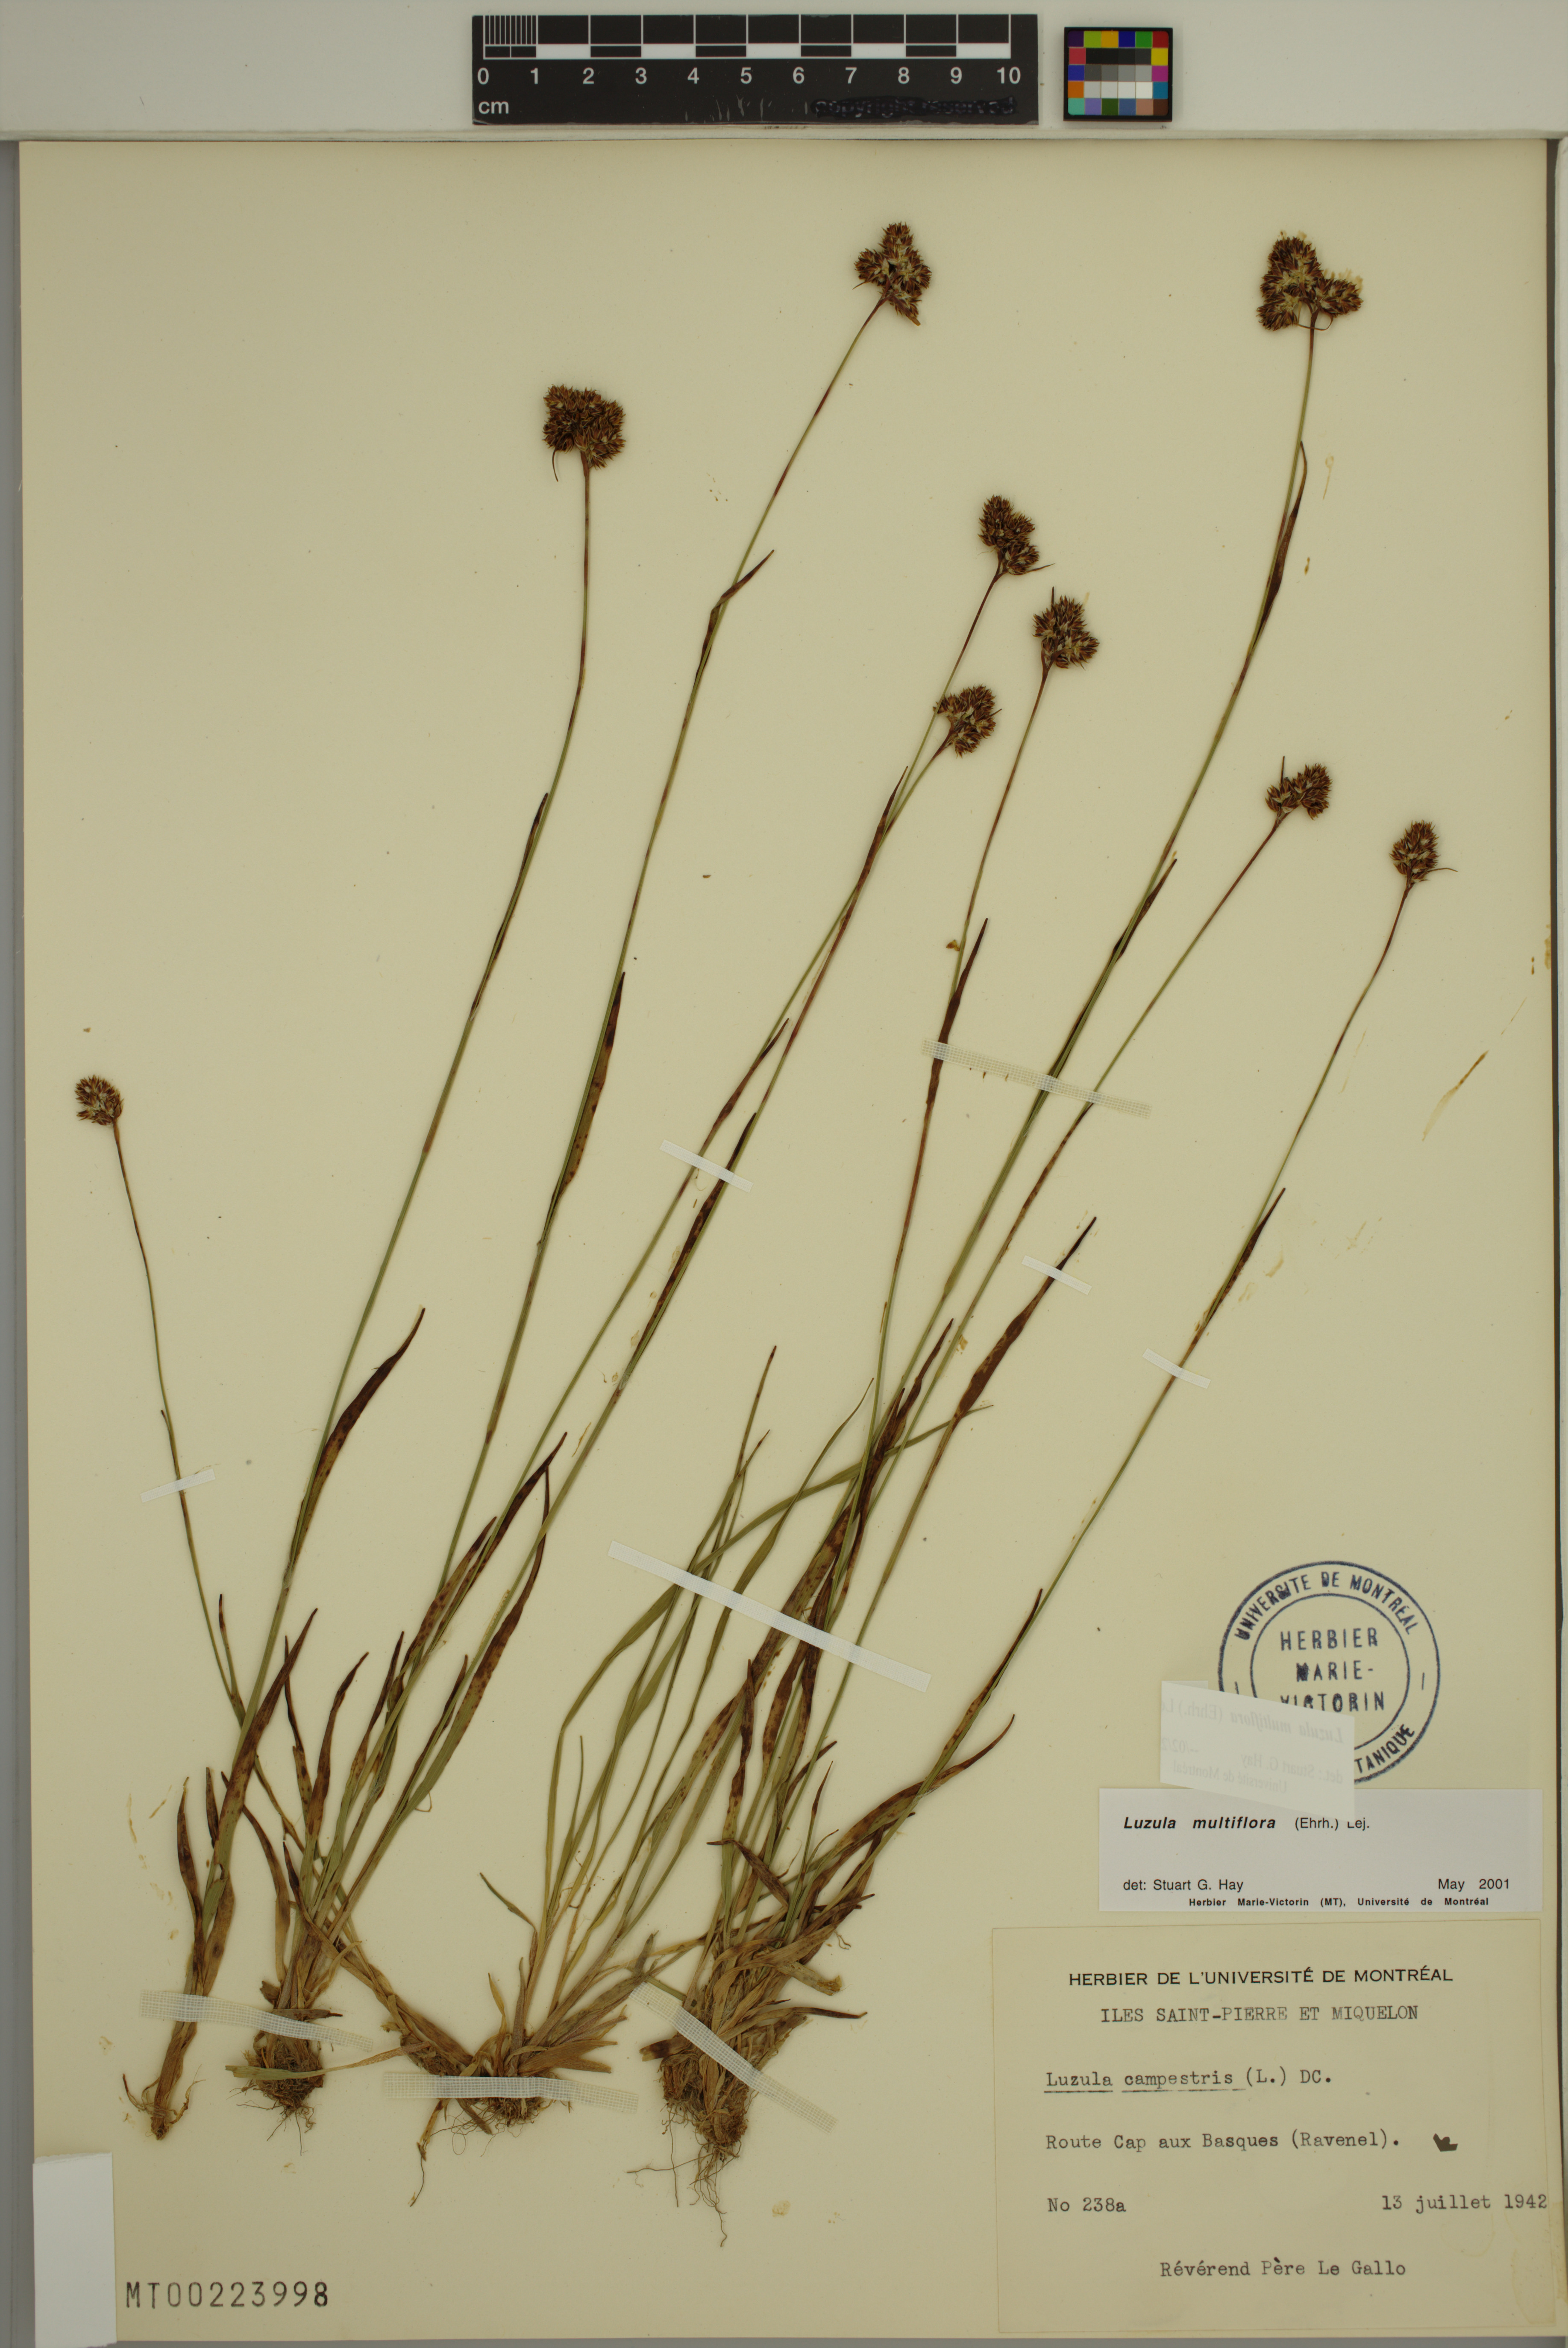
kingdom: Plantae
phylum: Tracheophyta
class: Liliopsida
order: Poales
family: Juncaceae
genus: Luzula
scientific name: Luzula multiflora
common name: Heath wood-rush
